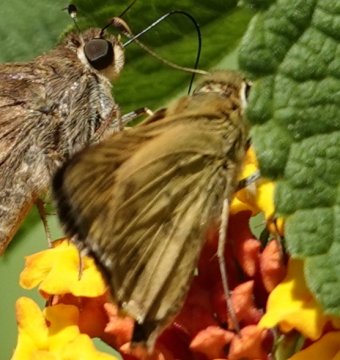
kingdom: Animalia
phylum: Arthropoda
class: Insecta
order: Lepidoptera
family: Hesperiidae
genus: Polites
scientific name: Polites vibex
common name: Whirlabout
